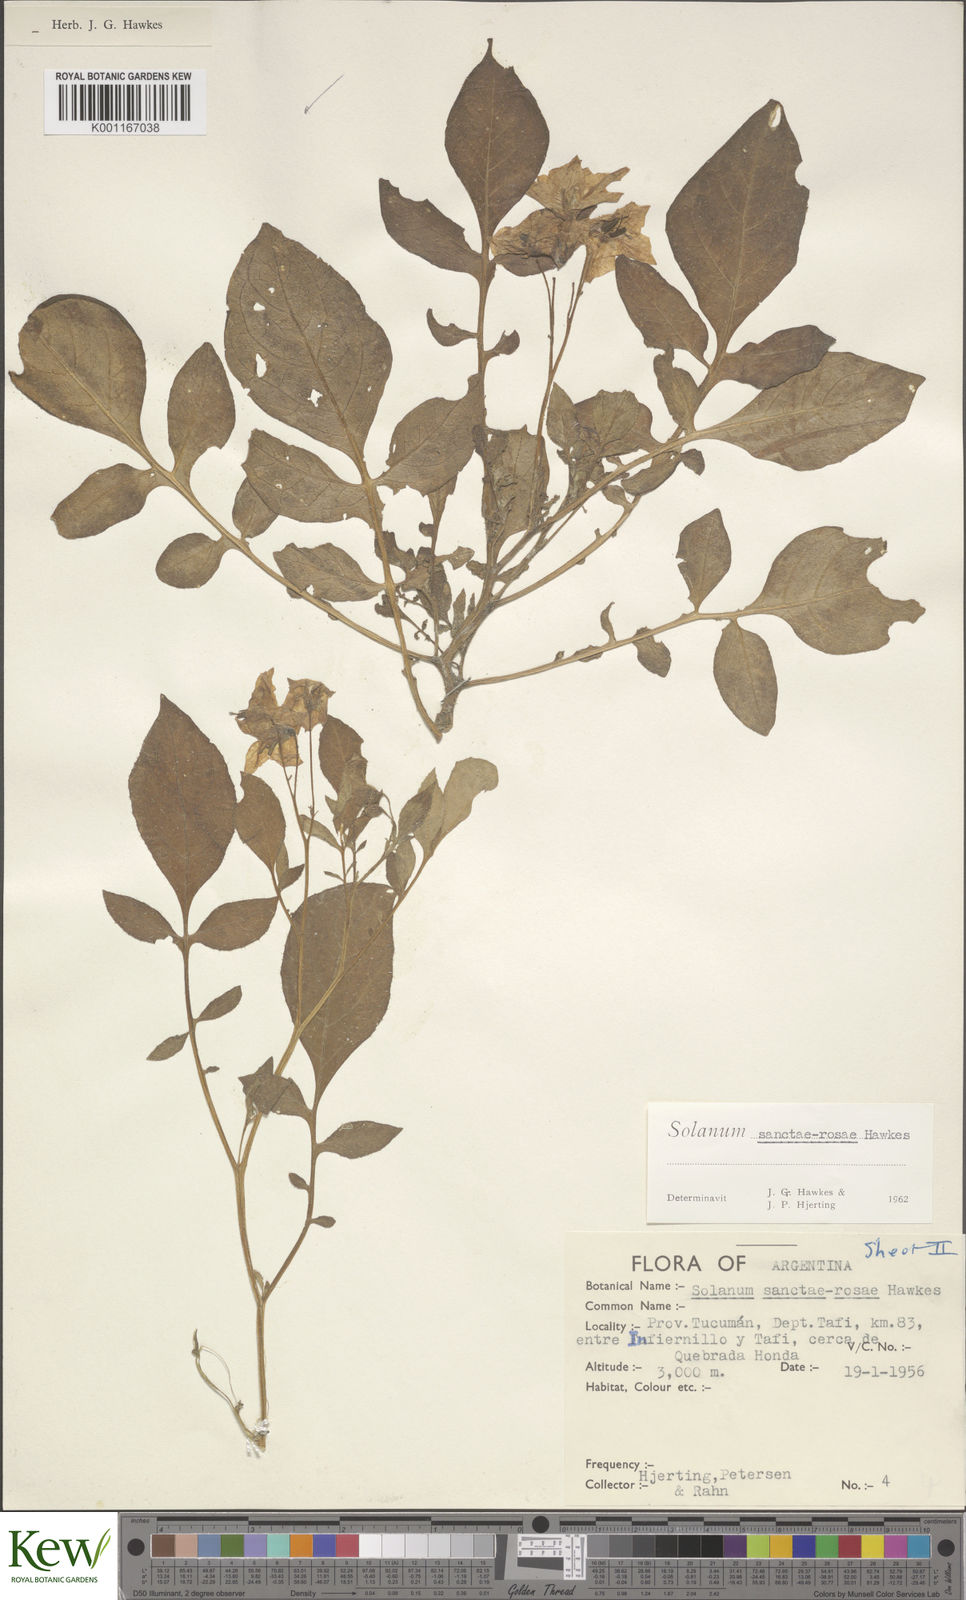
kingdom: Plantae
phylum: Tracheophyta
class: Magnoliopsida
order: Solanales
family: Solanaceae
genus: Solanum
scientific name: Solanum boliviense
